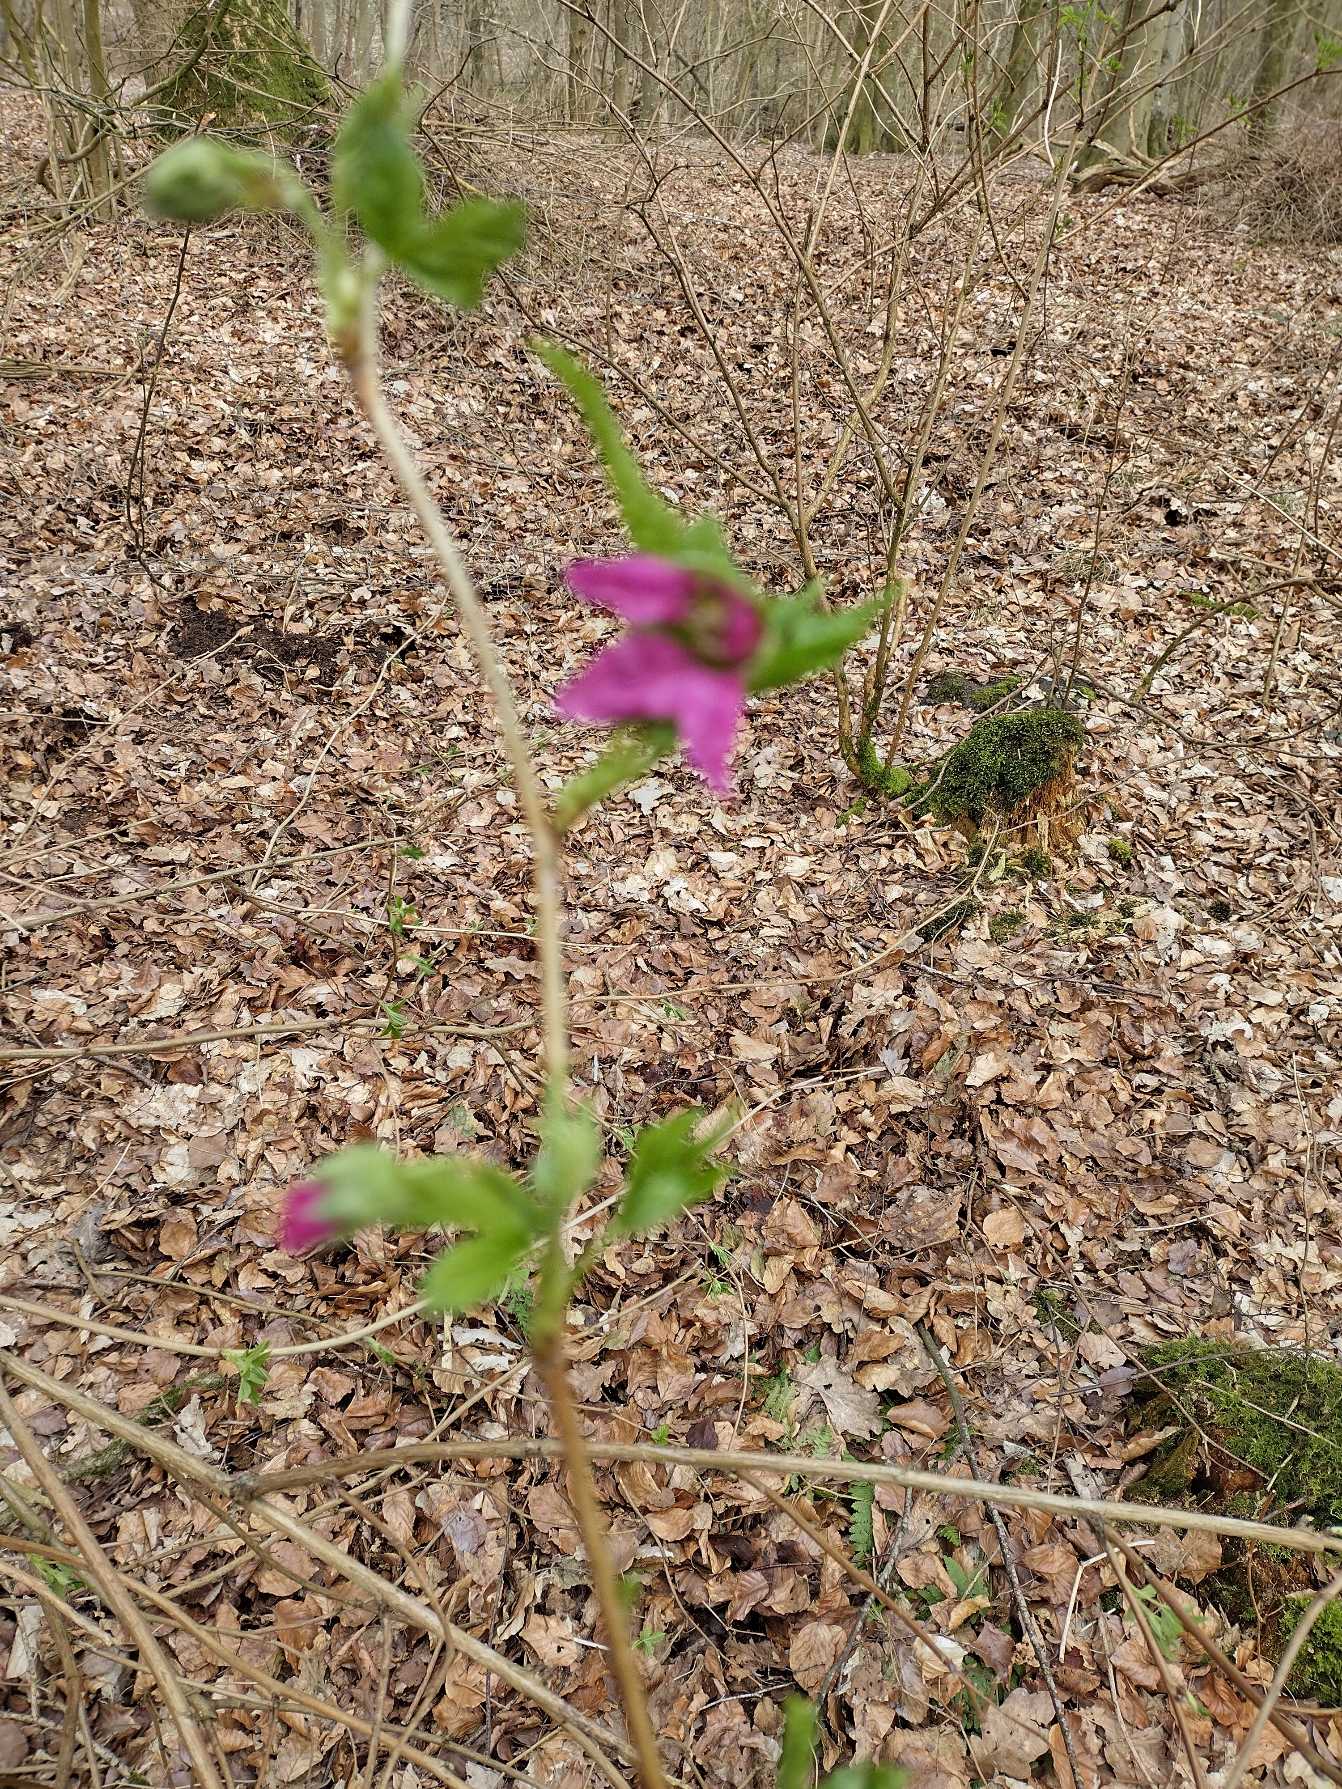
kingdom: Plantae
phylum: Tracheophyta
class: Magnoliopsida
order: Rosales
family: Rosaceae
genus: Rubus
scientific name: Rubus spectabilis
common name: Laksebær
